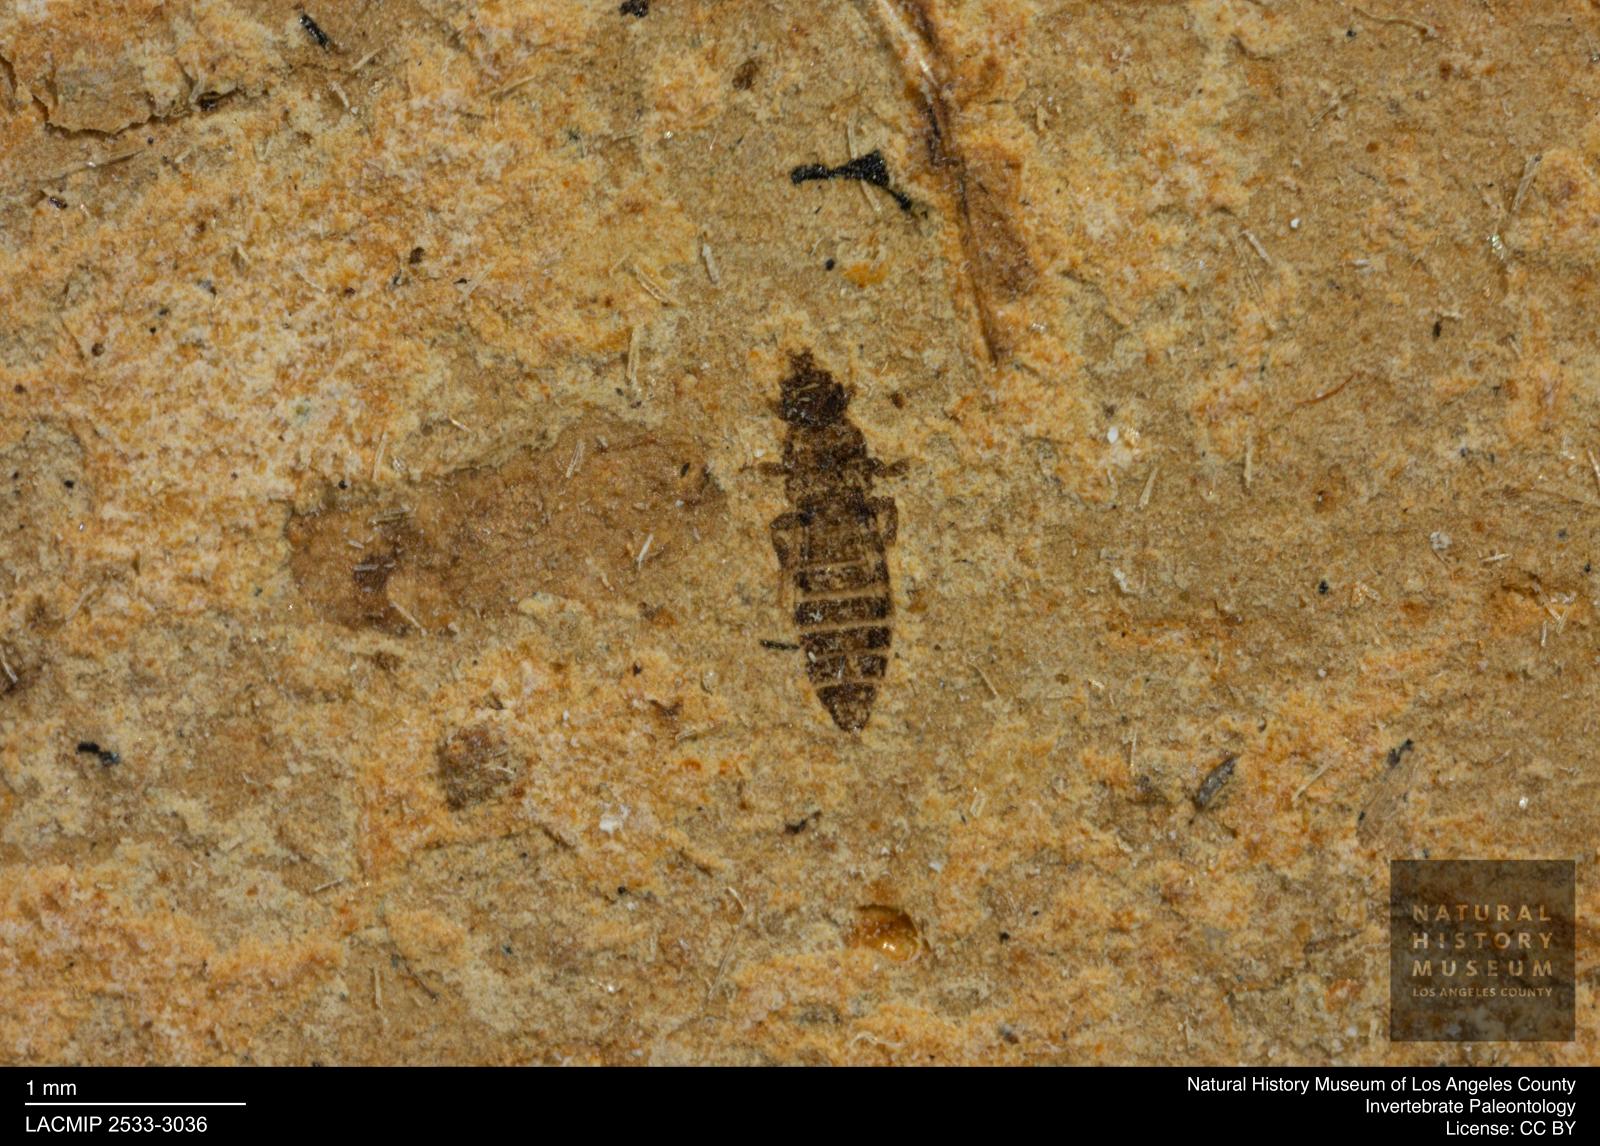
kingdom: Animalia
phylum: Arthropoda
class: Insecta
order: Thysanoptera
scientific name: Thysanoptera
